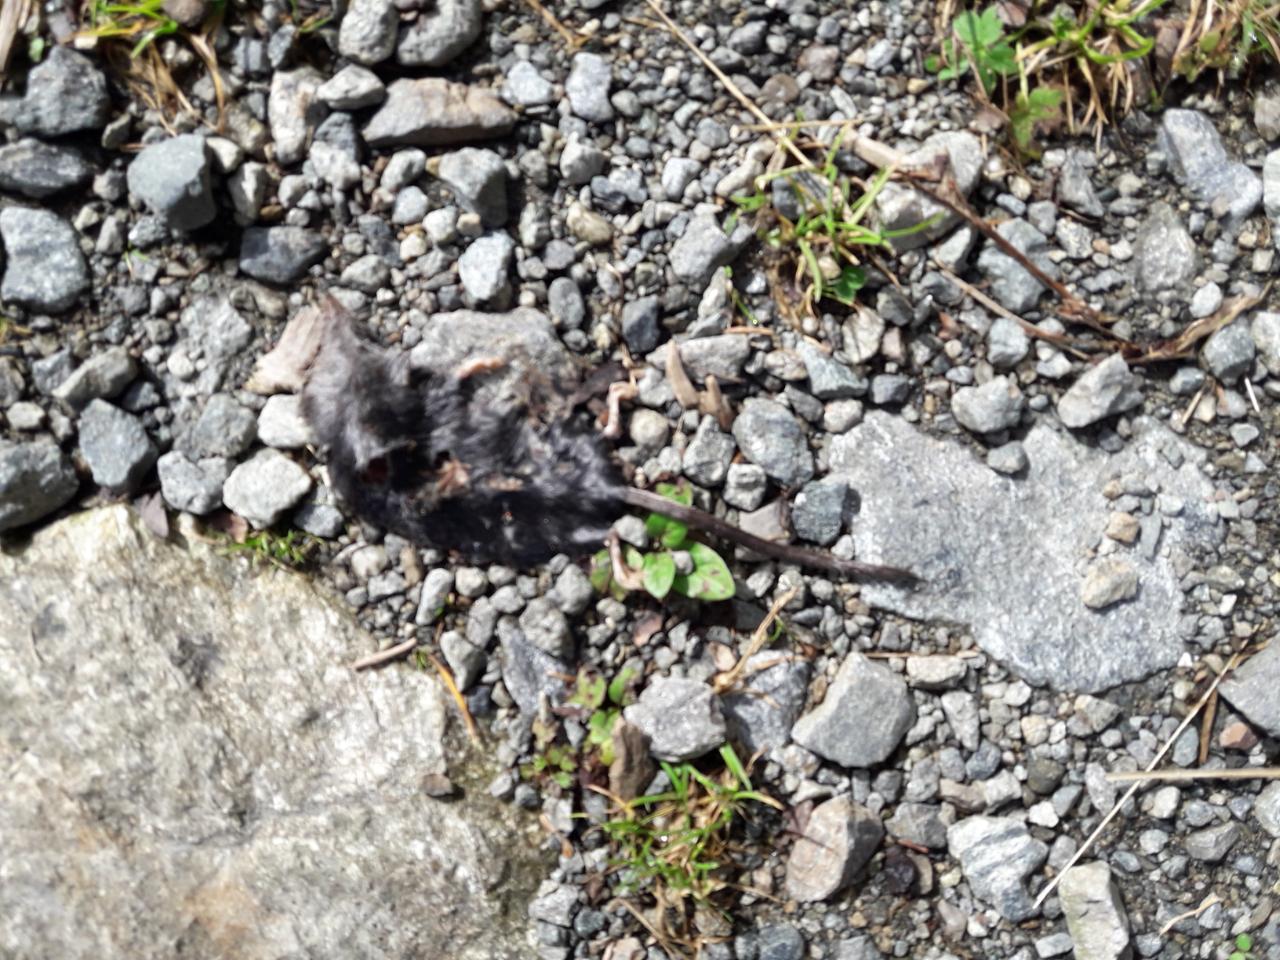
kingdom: Animalia
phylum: Chordata
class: Mammalia
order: Soricomorpha
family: Soricidae
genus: Sorex
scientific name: Sorex alpinus
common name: Alpine shrew
